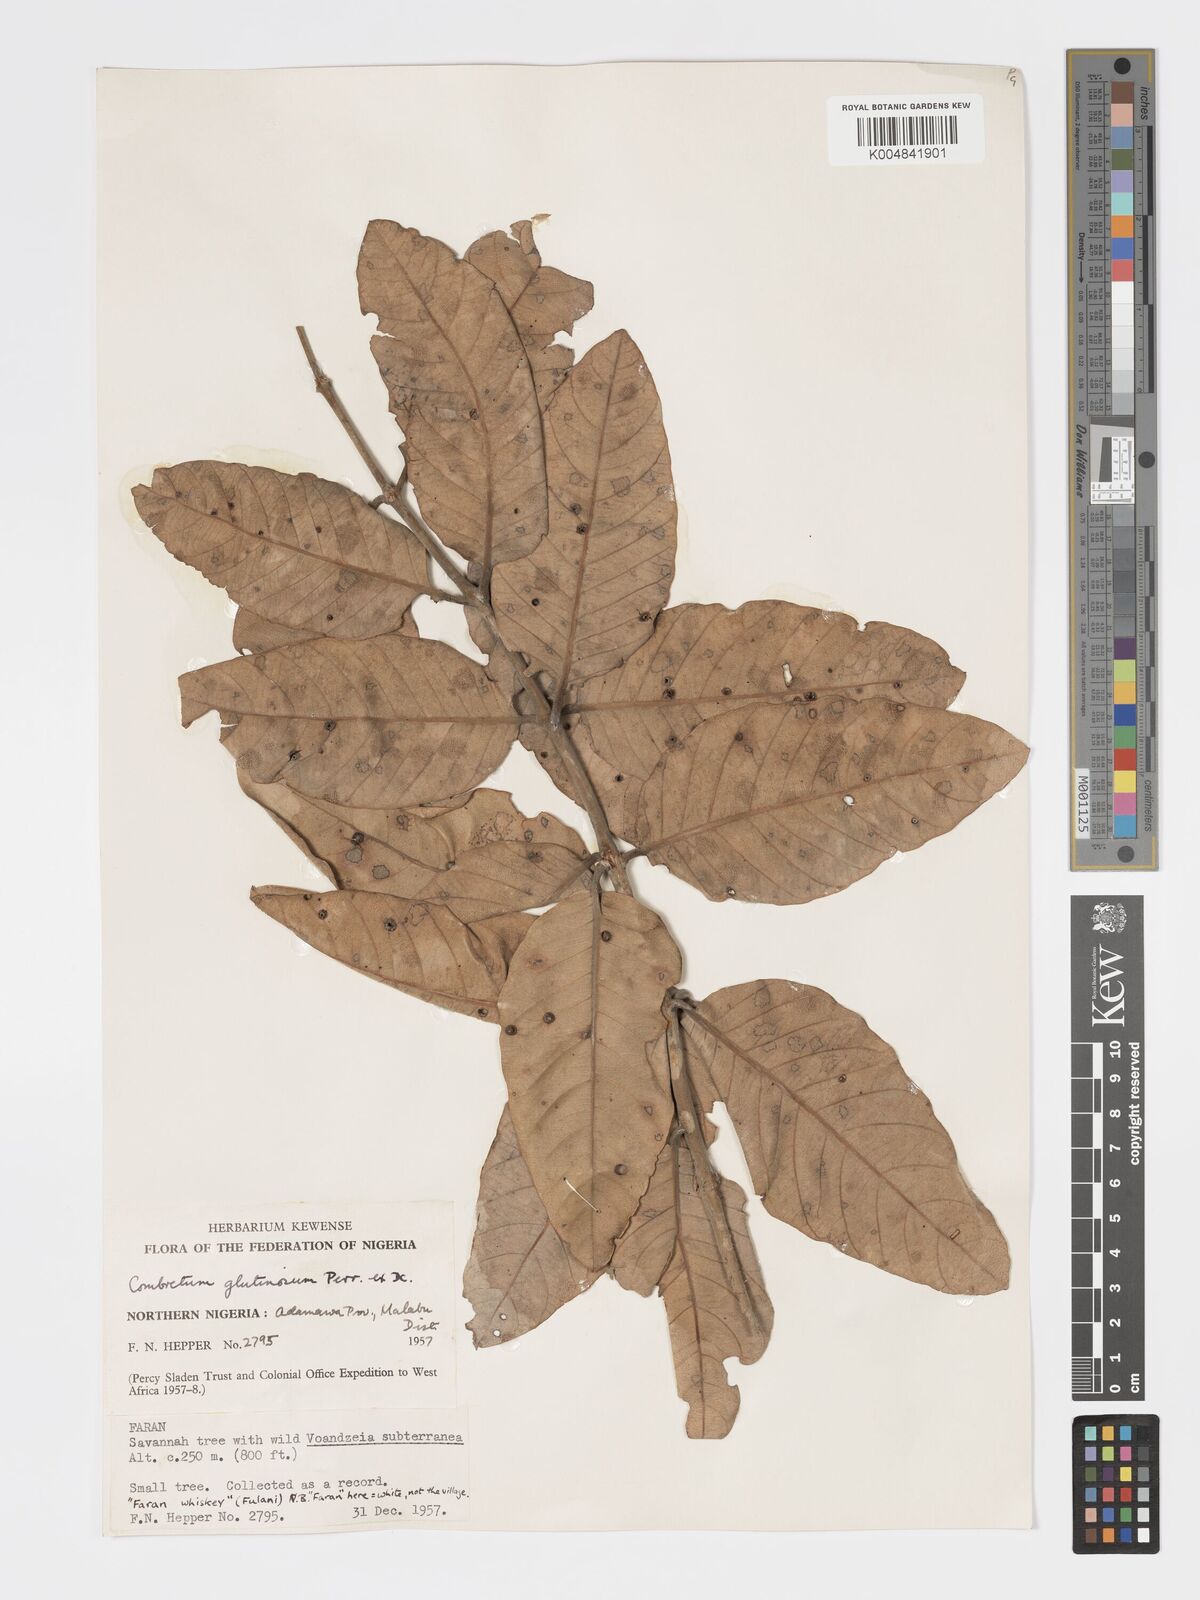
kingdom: Plantae
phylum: Tracheophyta
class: Magnoliopsida
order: Myrtales
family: Combretaceae
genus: Combretum
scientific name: Combretum
